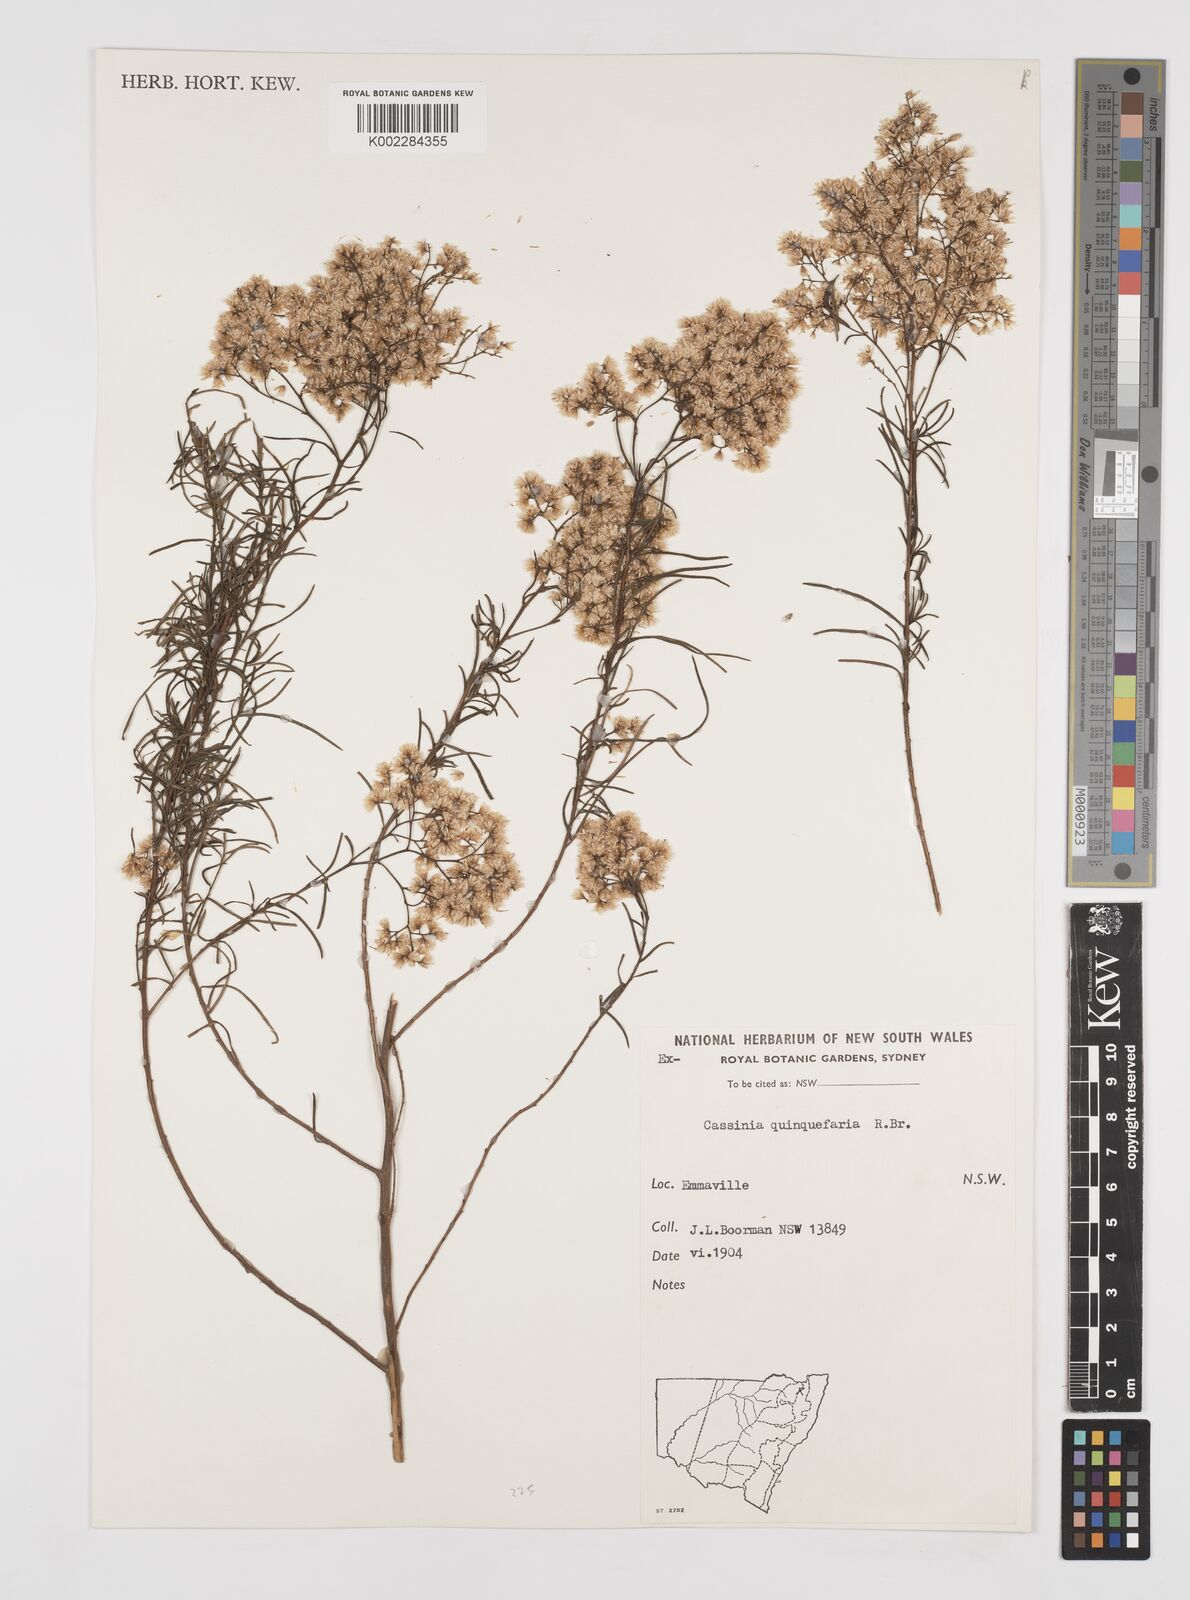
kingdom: Plantae
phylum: Tracheophyta
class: Magnoliopsida
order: Asterales
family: Asteraceae
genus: Cassinia
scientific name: Cassinia quinquefaria
